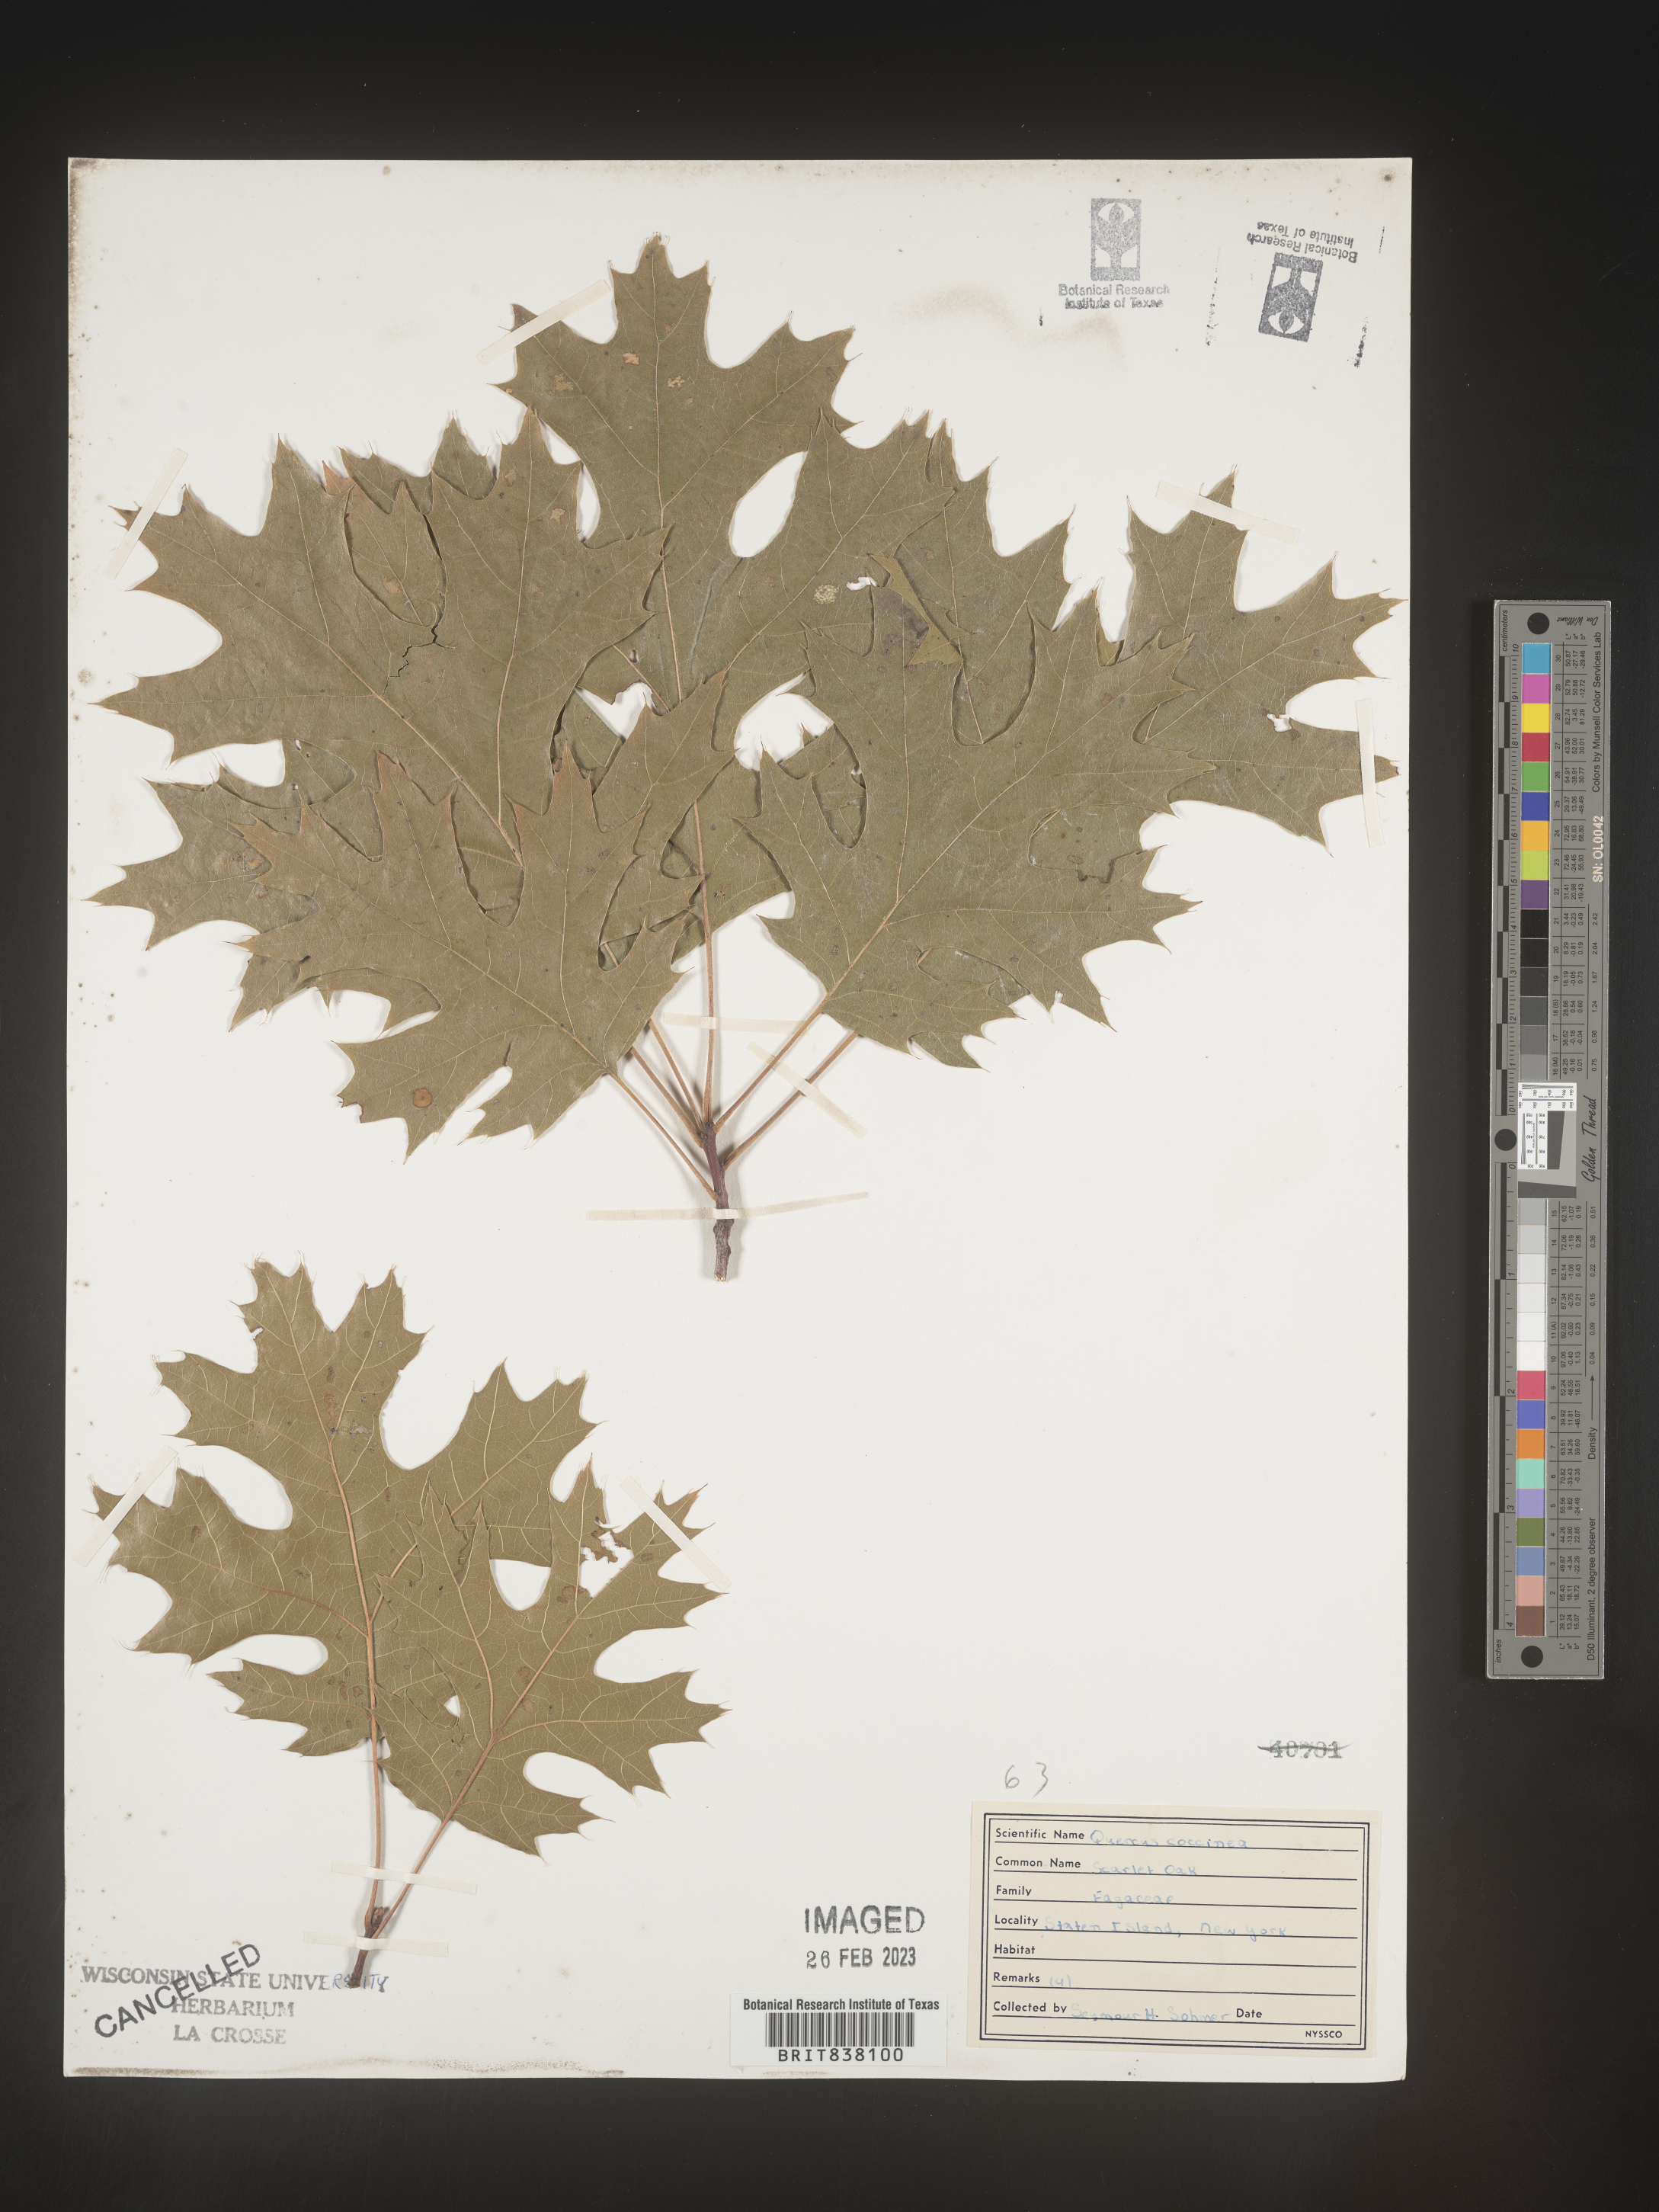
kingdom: Plantae
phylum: Tracheophyta
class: Magnoliopsida
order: Fagales
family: Fagaceae
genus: Quercus
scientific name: Quercus coccinea
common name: Scarlet oak
